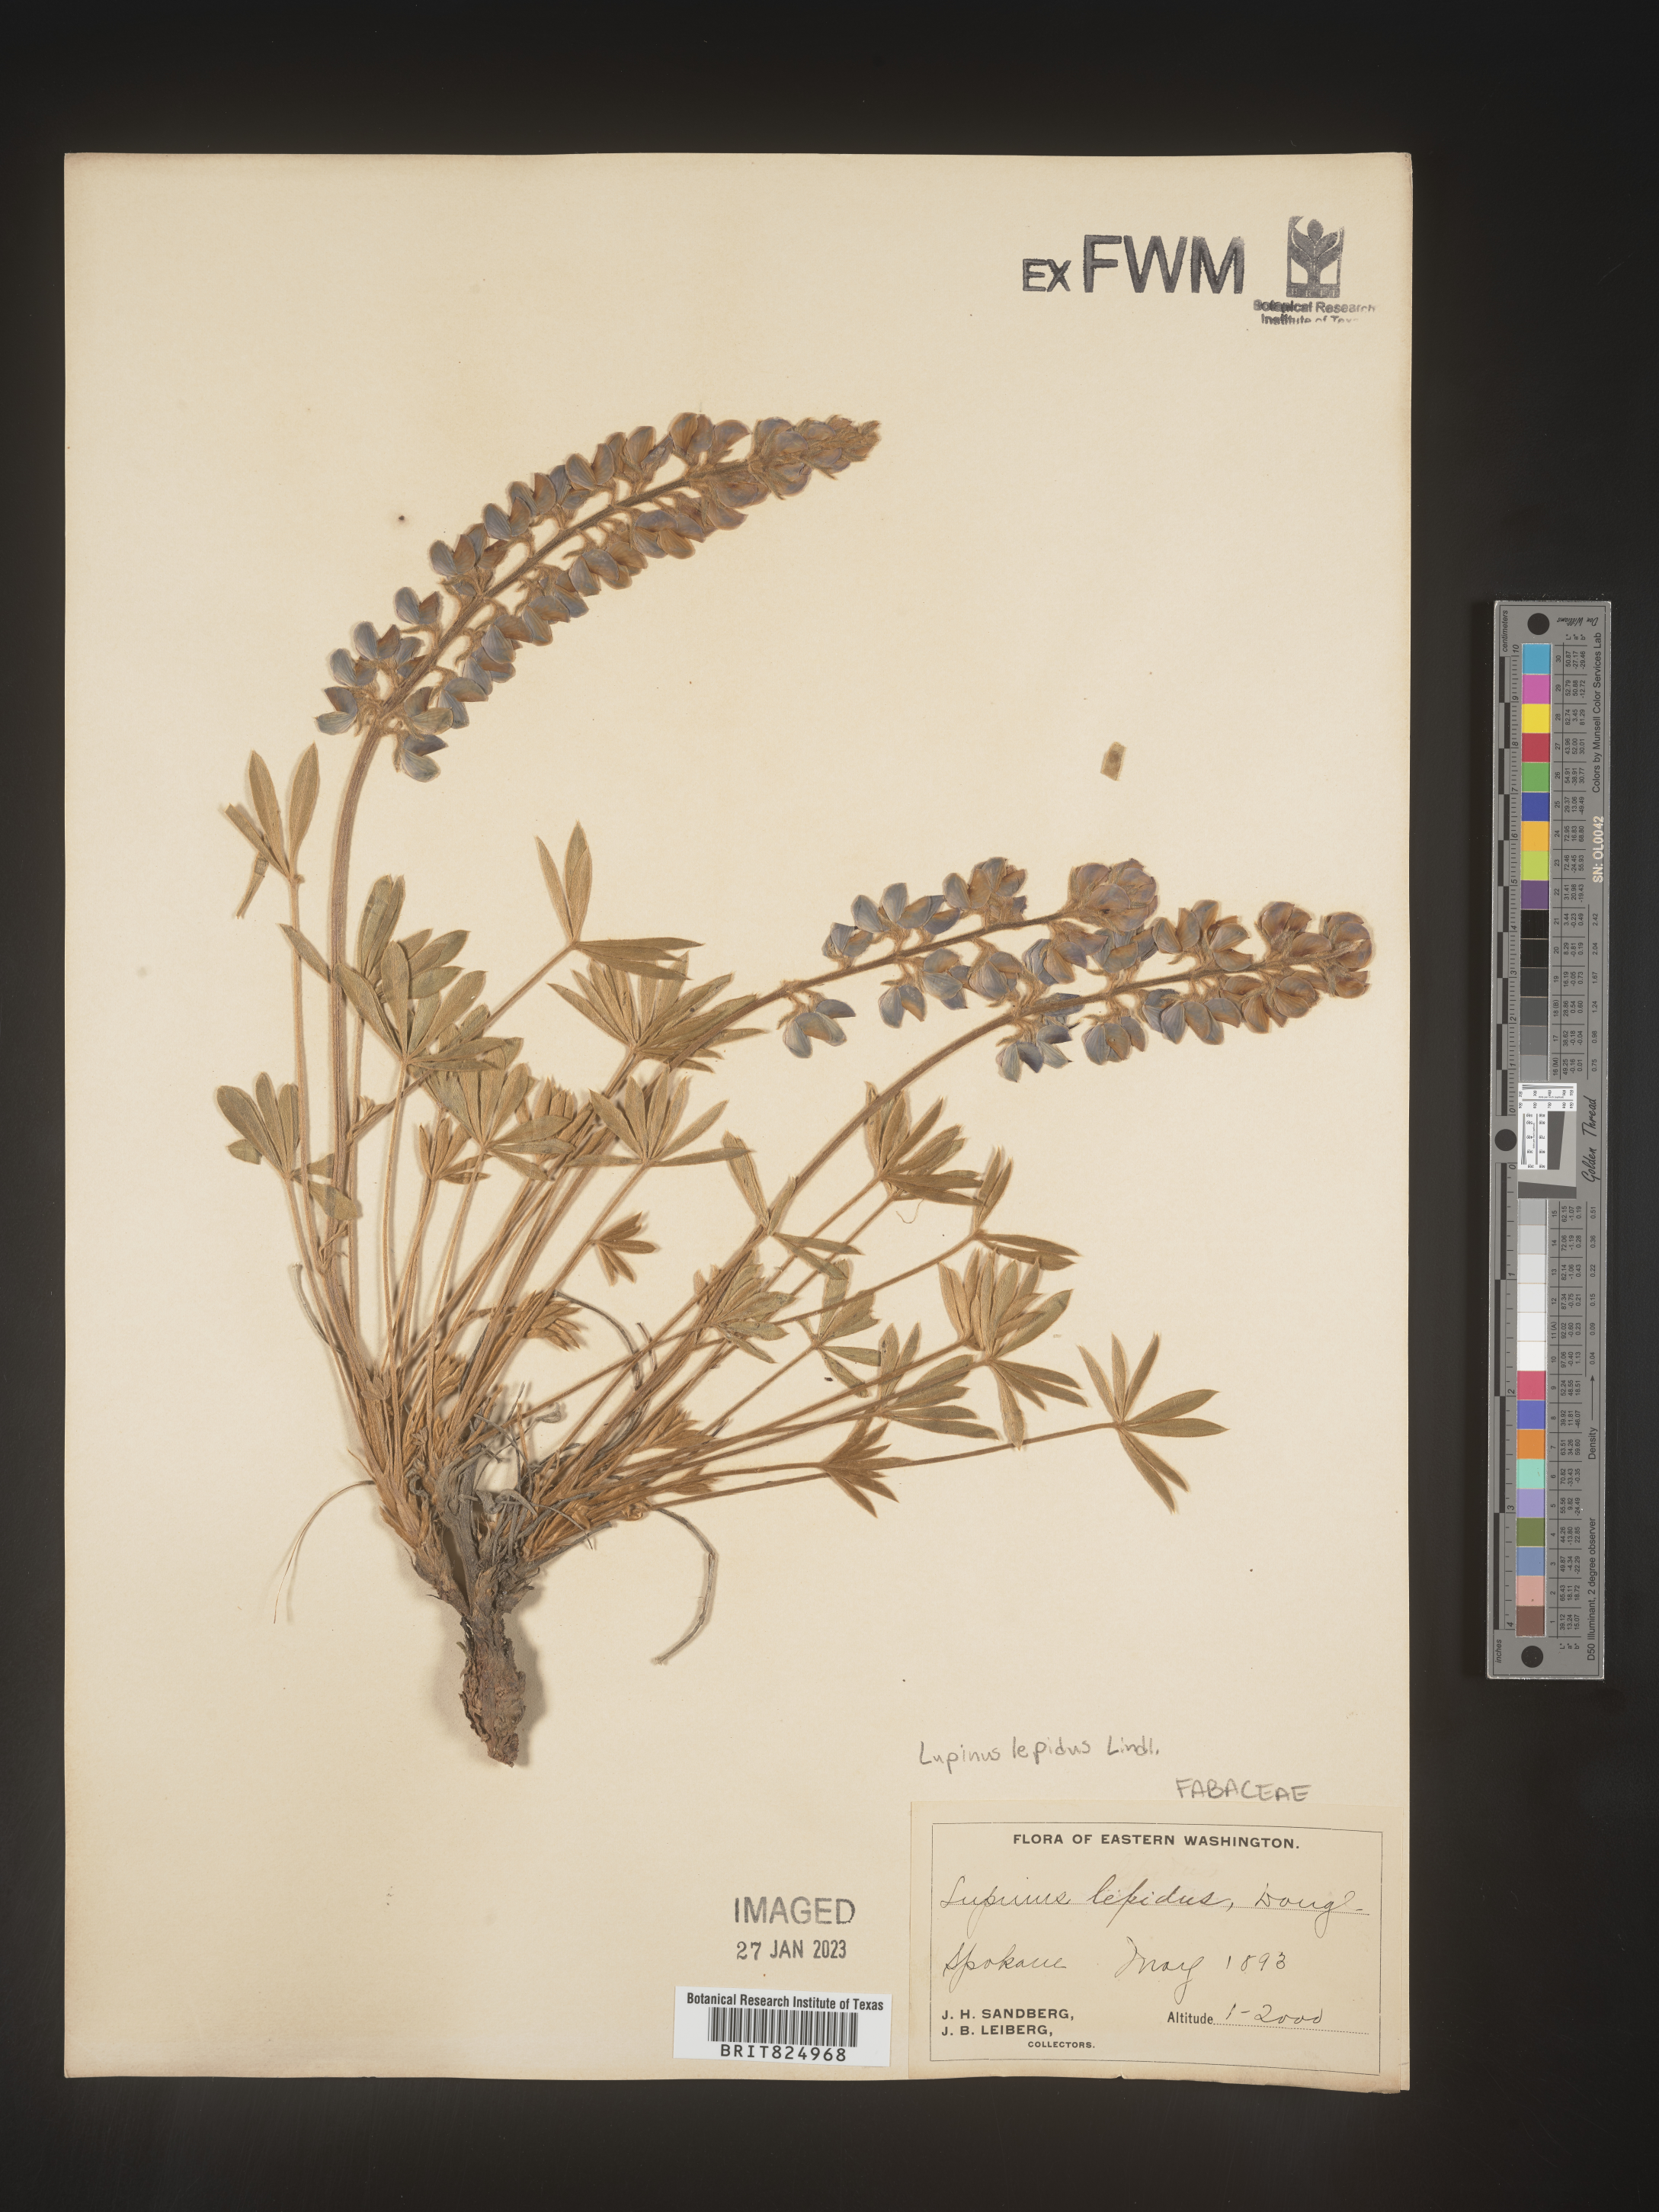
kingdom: Plantae
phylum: Tracheophyta
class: Magnoliopsida
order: Fabales
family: Fabaceae
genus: Lupinus
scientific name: Lupinus
